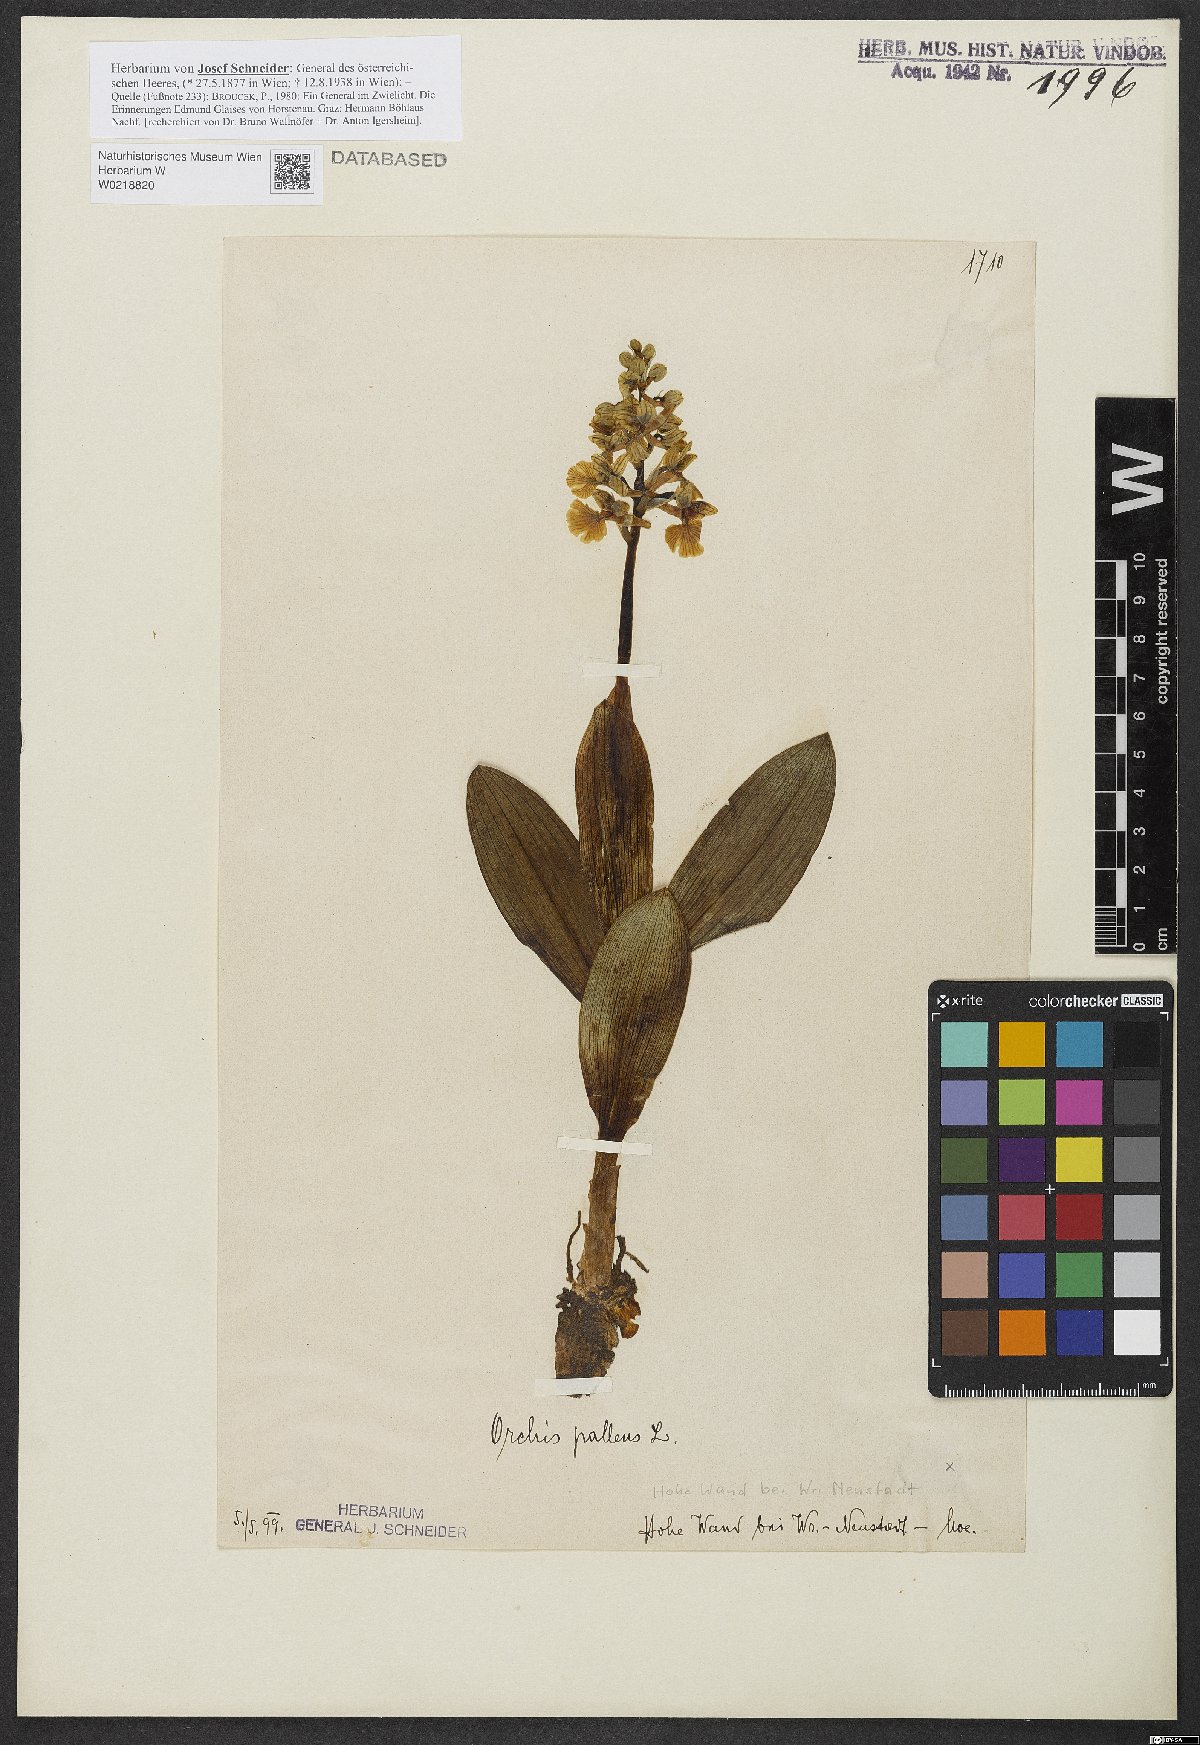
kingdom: Plantae
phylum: Tracheophyta
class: Liliopsida
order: Asparagales
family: Orchidaceae
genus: Orchis
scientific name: Orchis pallens
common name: Pale-flowered orchid
